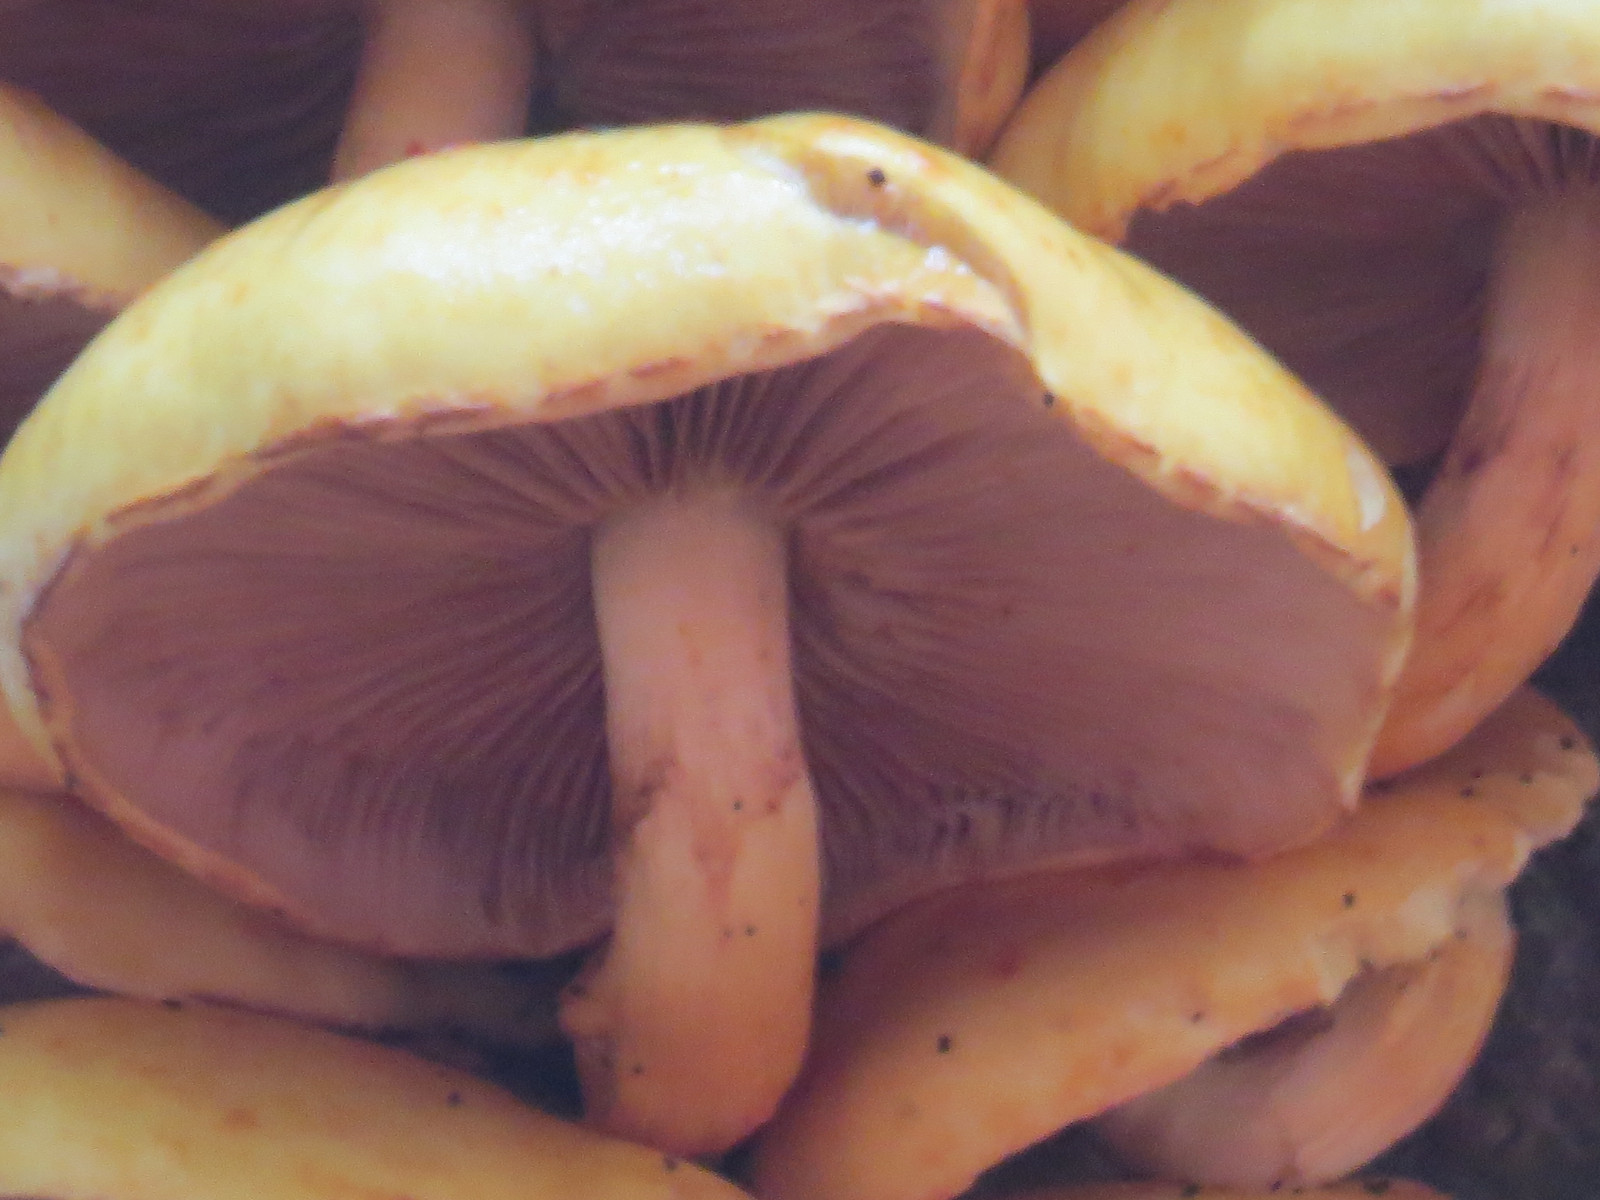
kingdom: Fungi
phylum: Basidiomycota
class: Agaricomycetes
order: Agaricales
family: Strophariaceae
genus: Pholiota
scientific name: Pholiota adiposa
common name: højtsiddende skælhat
